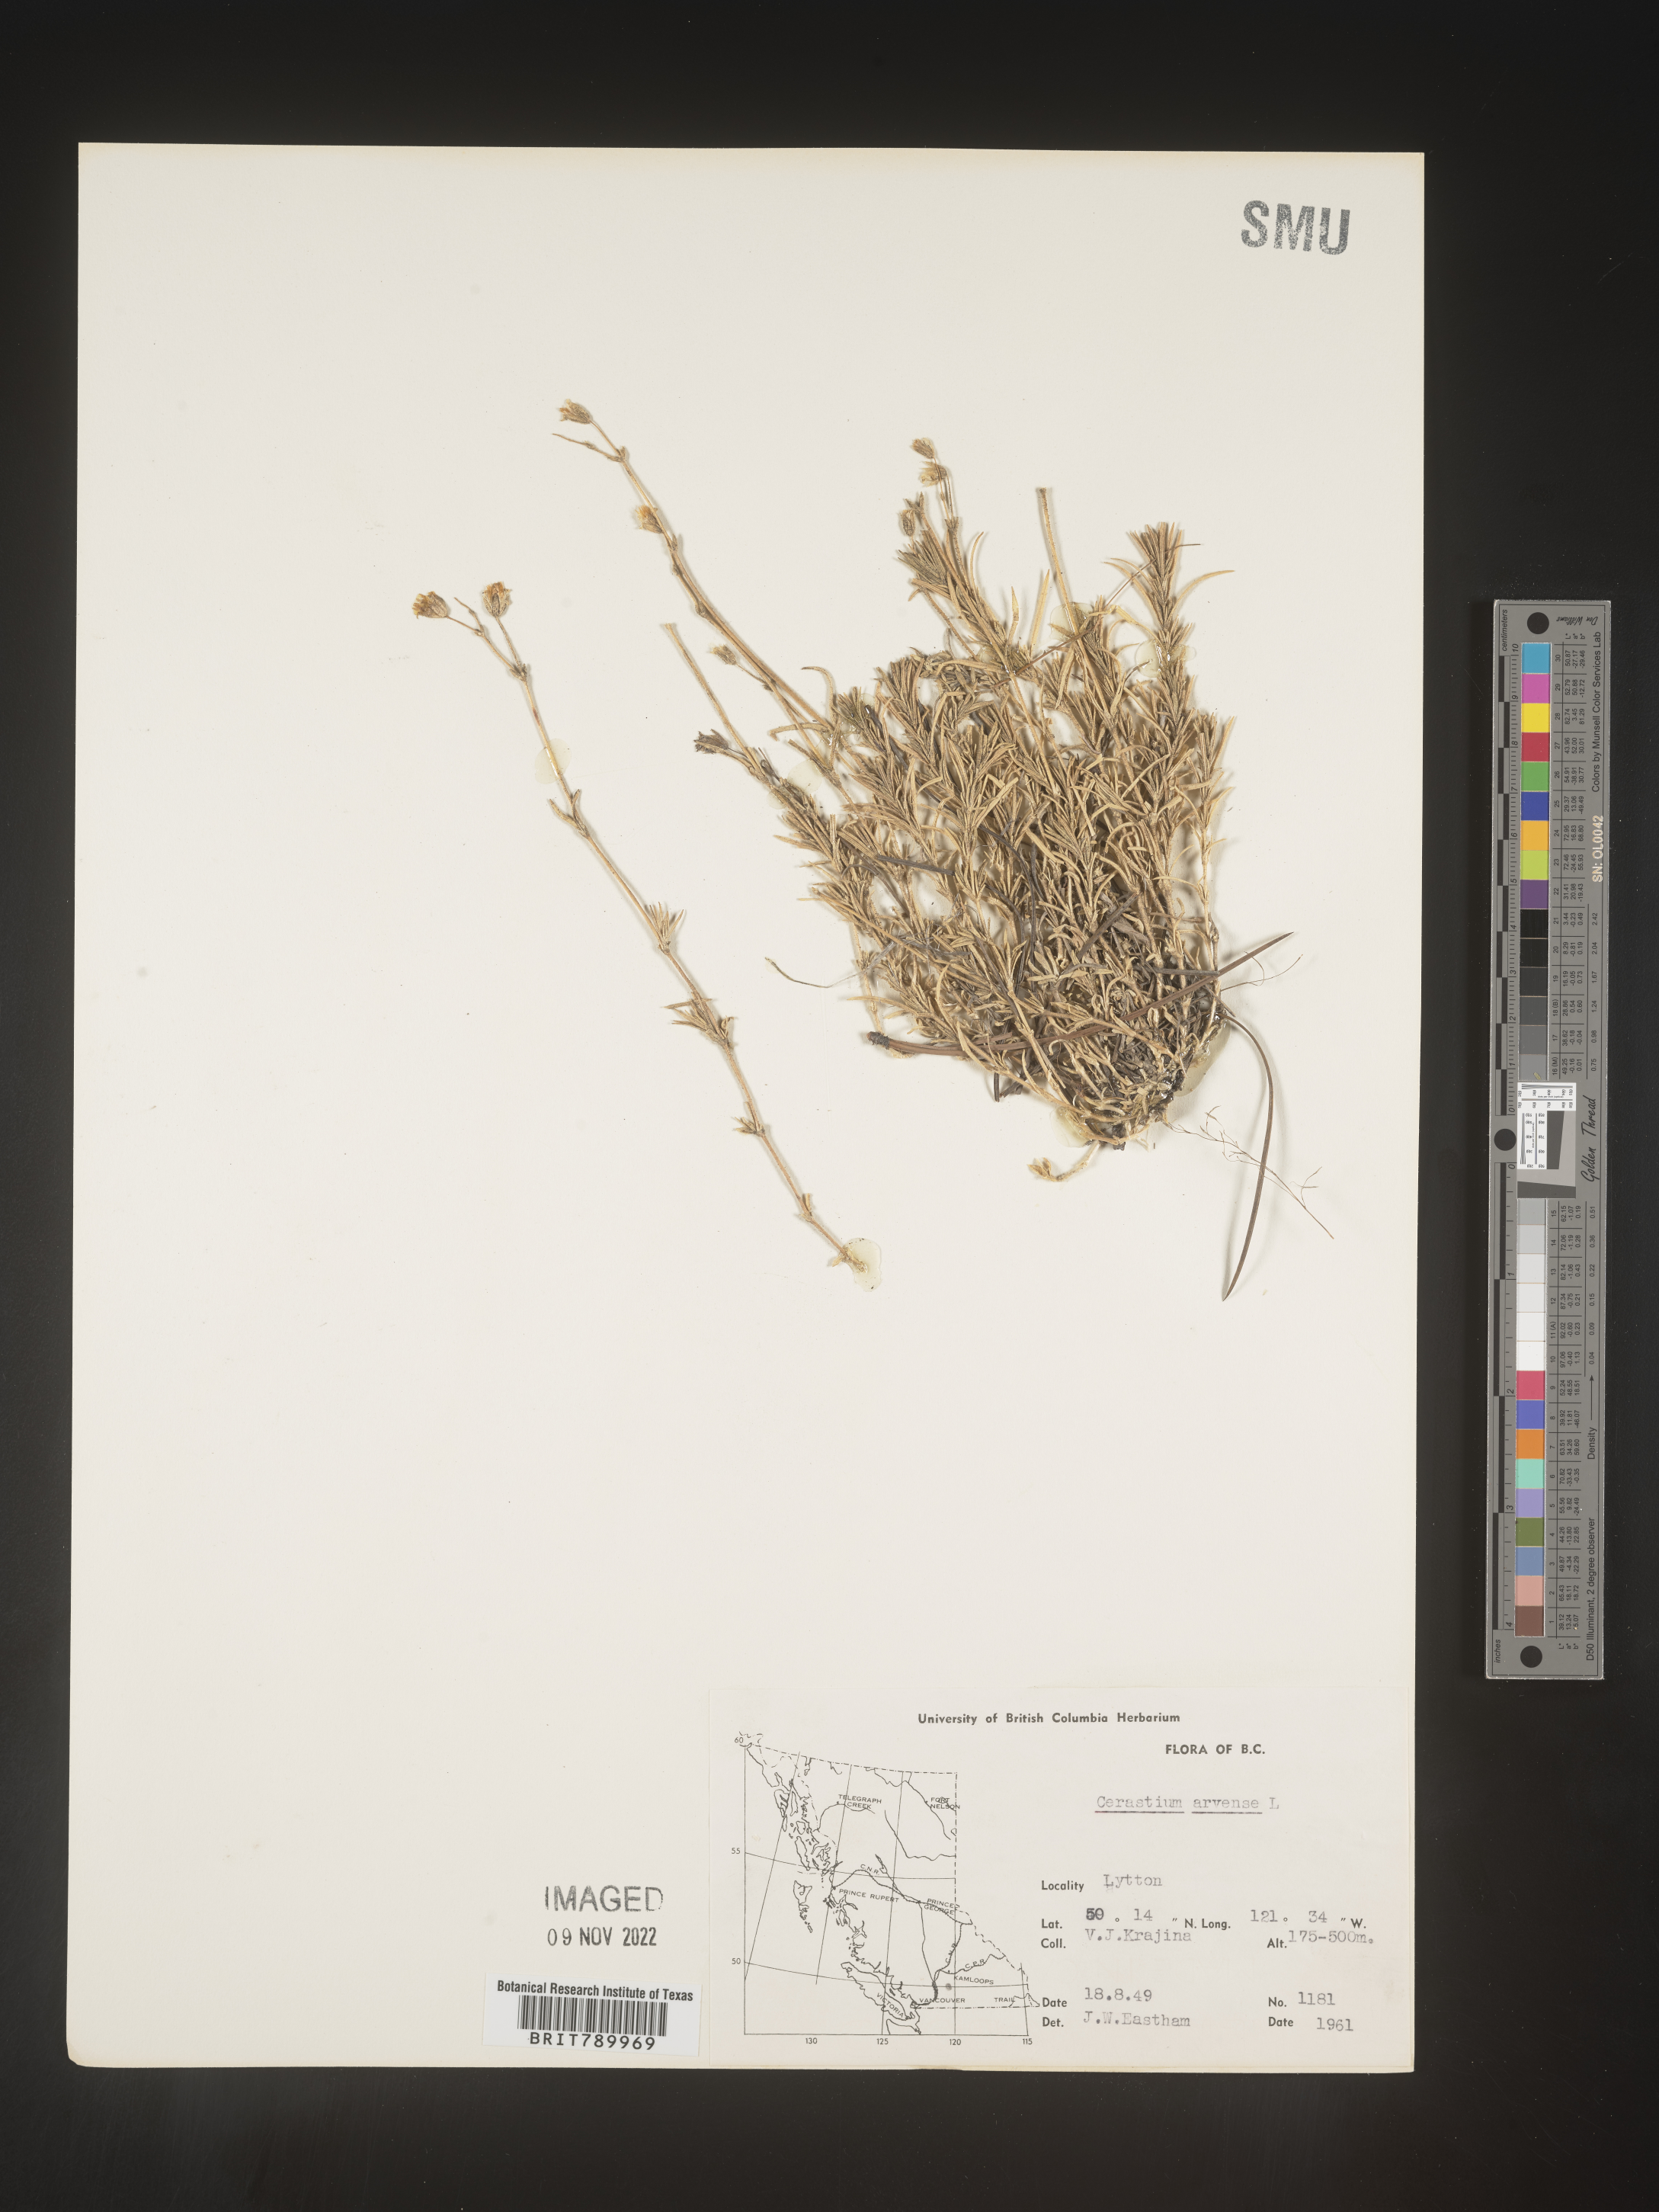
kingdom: Plantae
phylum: Tracheophyta
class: Magnoliopsida
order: Caryophyllales
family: Caryophyllaceae
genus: Cerastium
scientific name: Cerastium arvense
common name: Field mouse-ear
